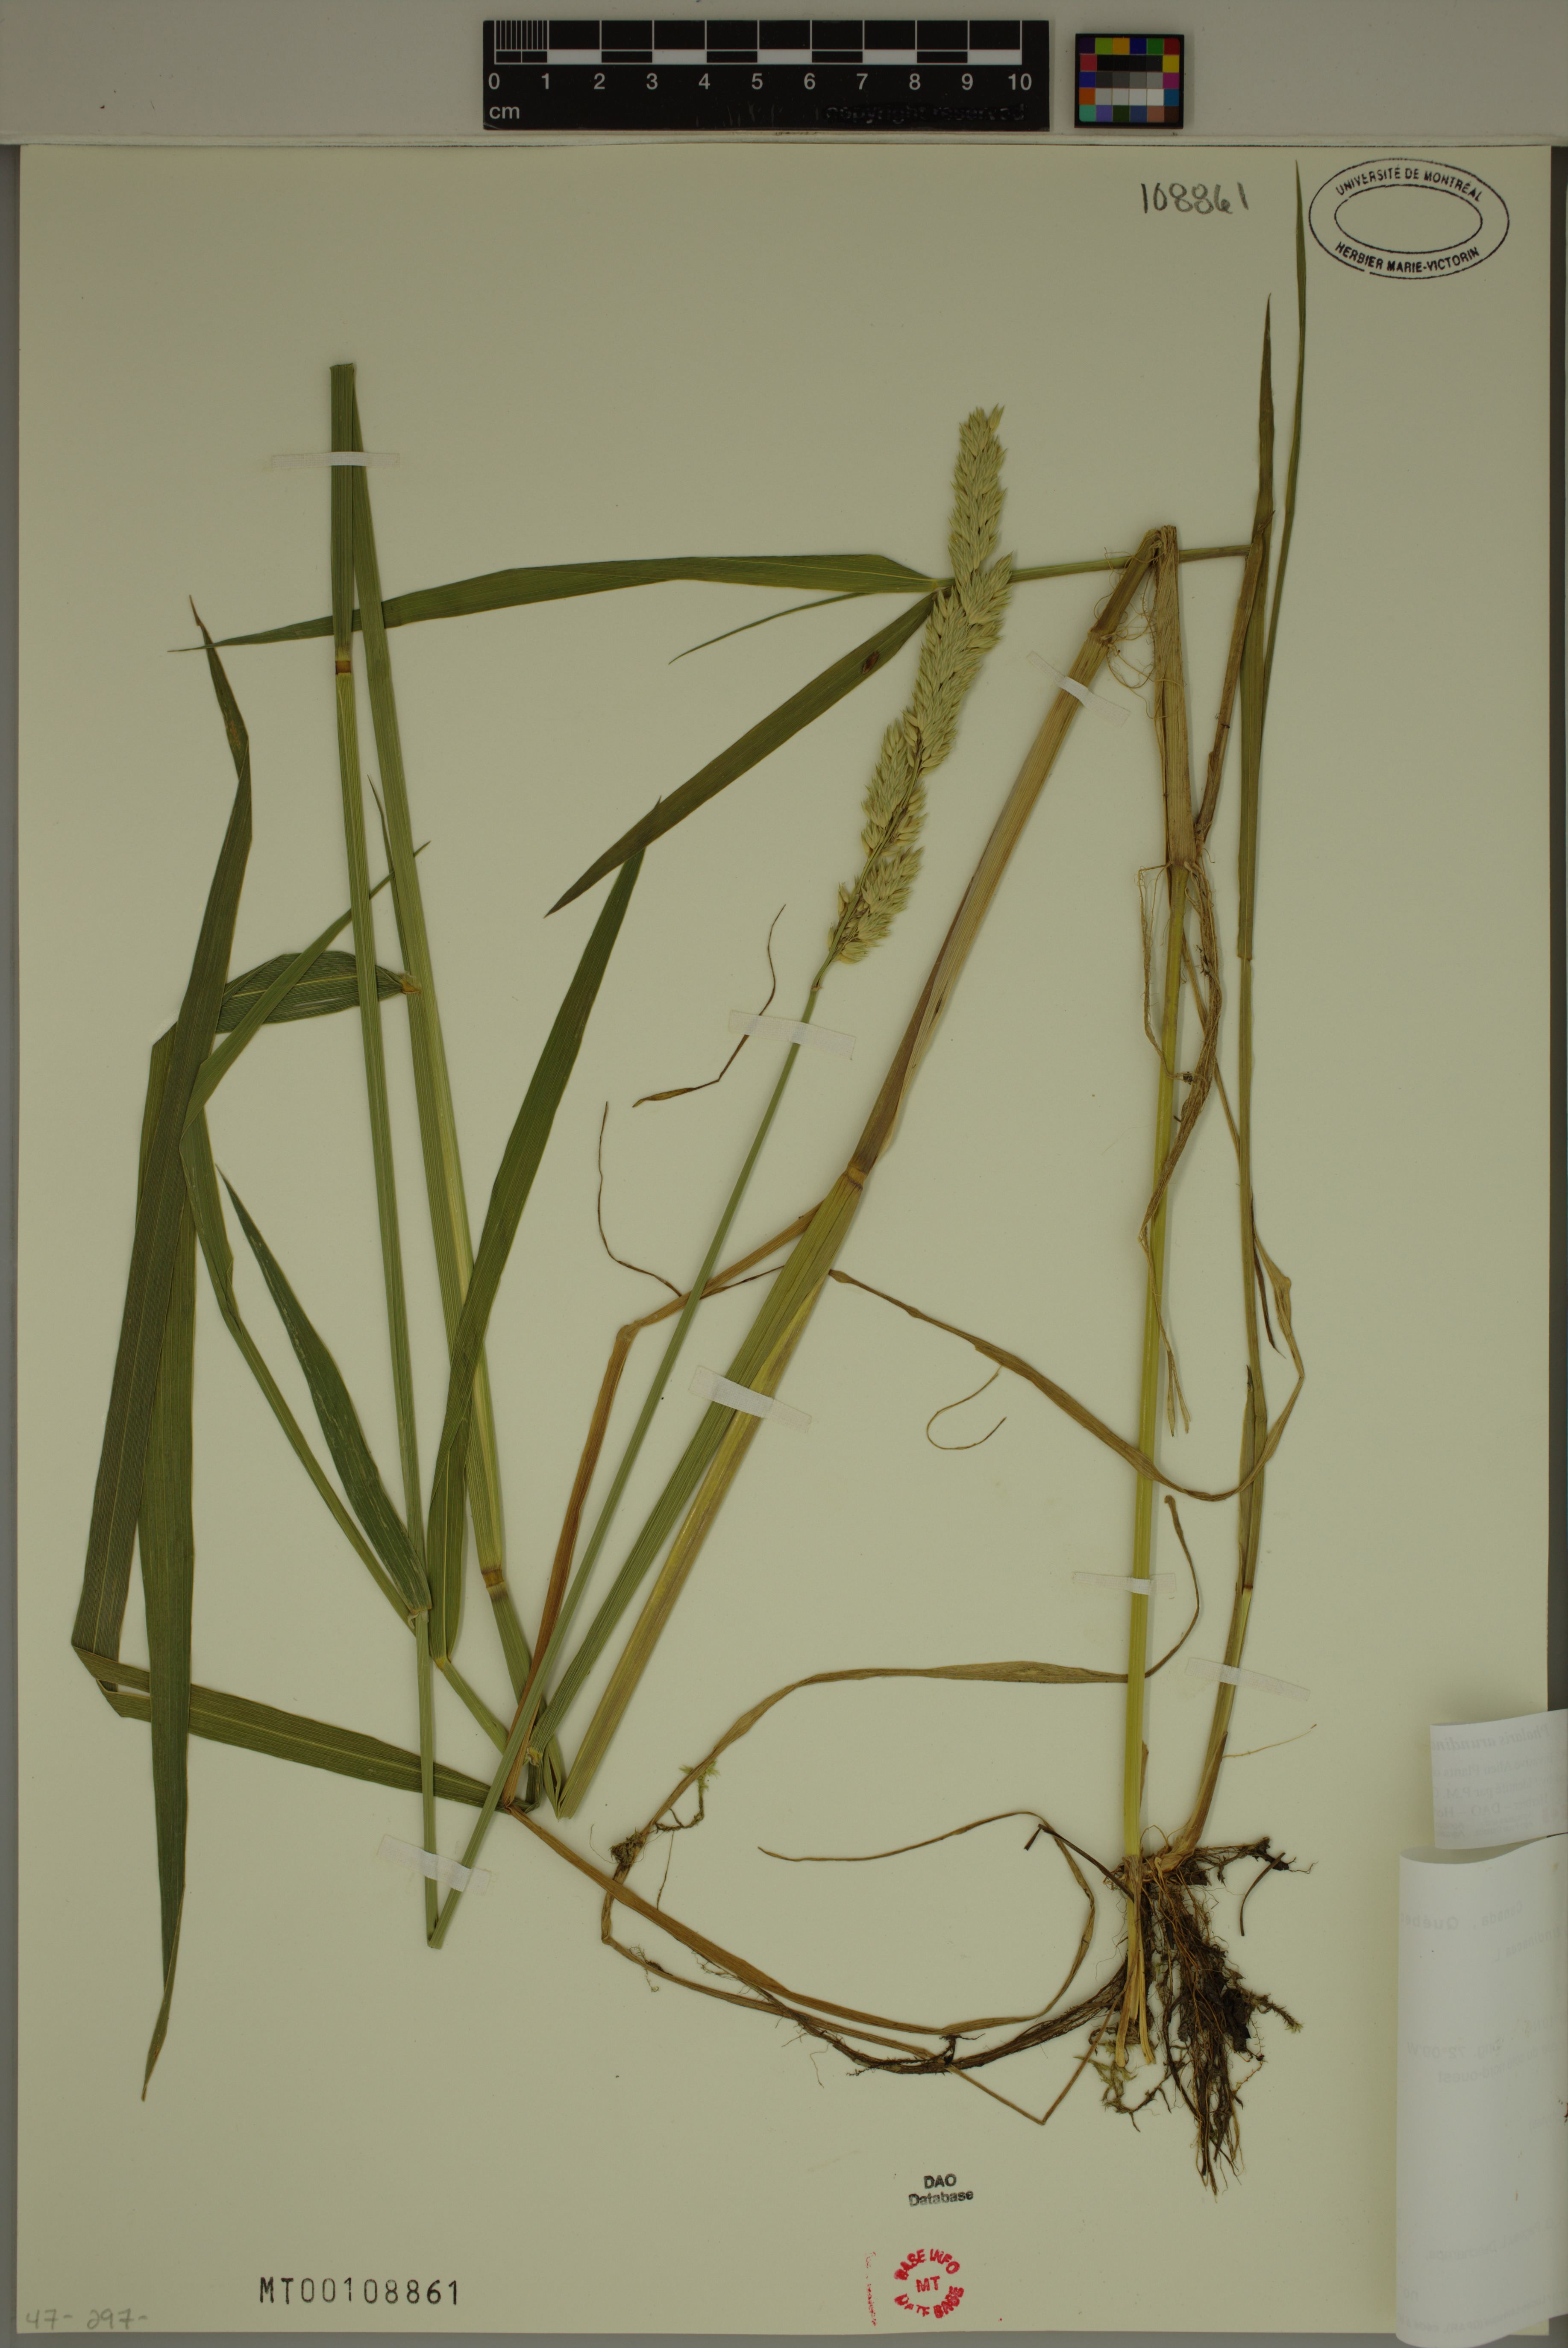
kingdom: Plantae
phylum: Tracheophyta
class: Liliopsida
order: Poales
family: Poaceae
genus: Phalaris
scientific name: Phalaris arundinacea
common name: Reed canary-grass
